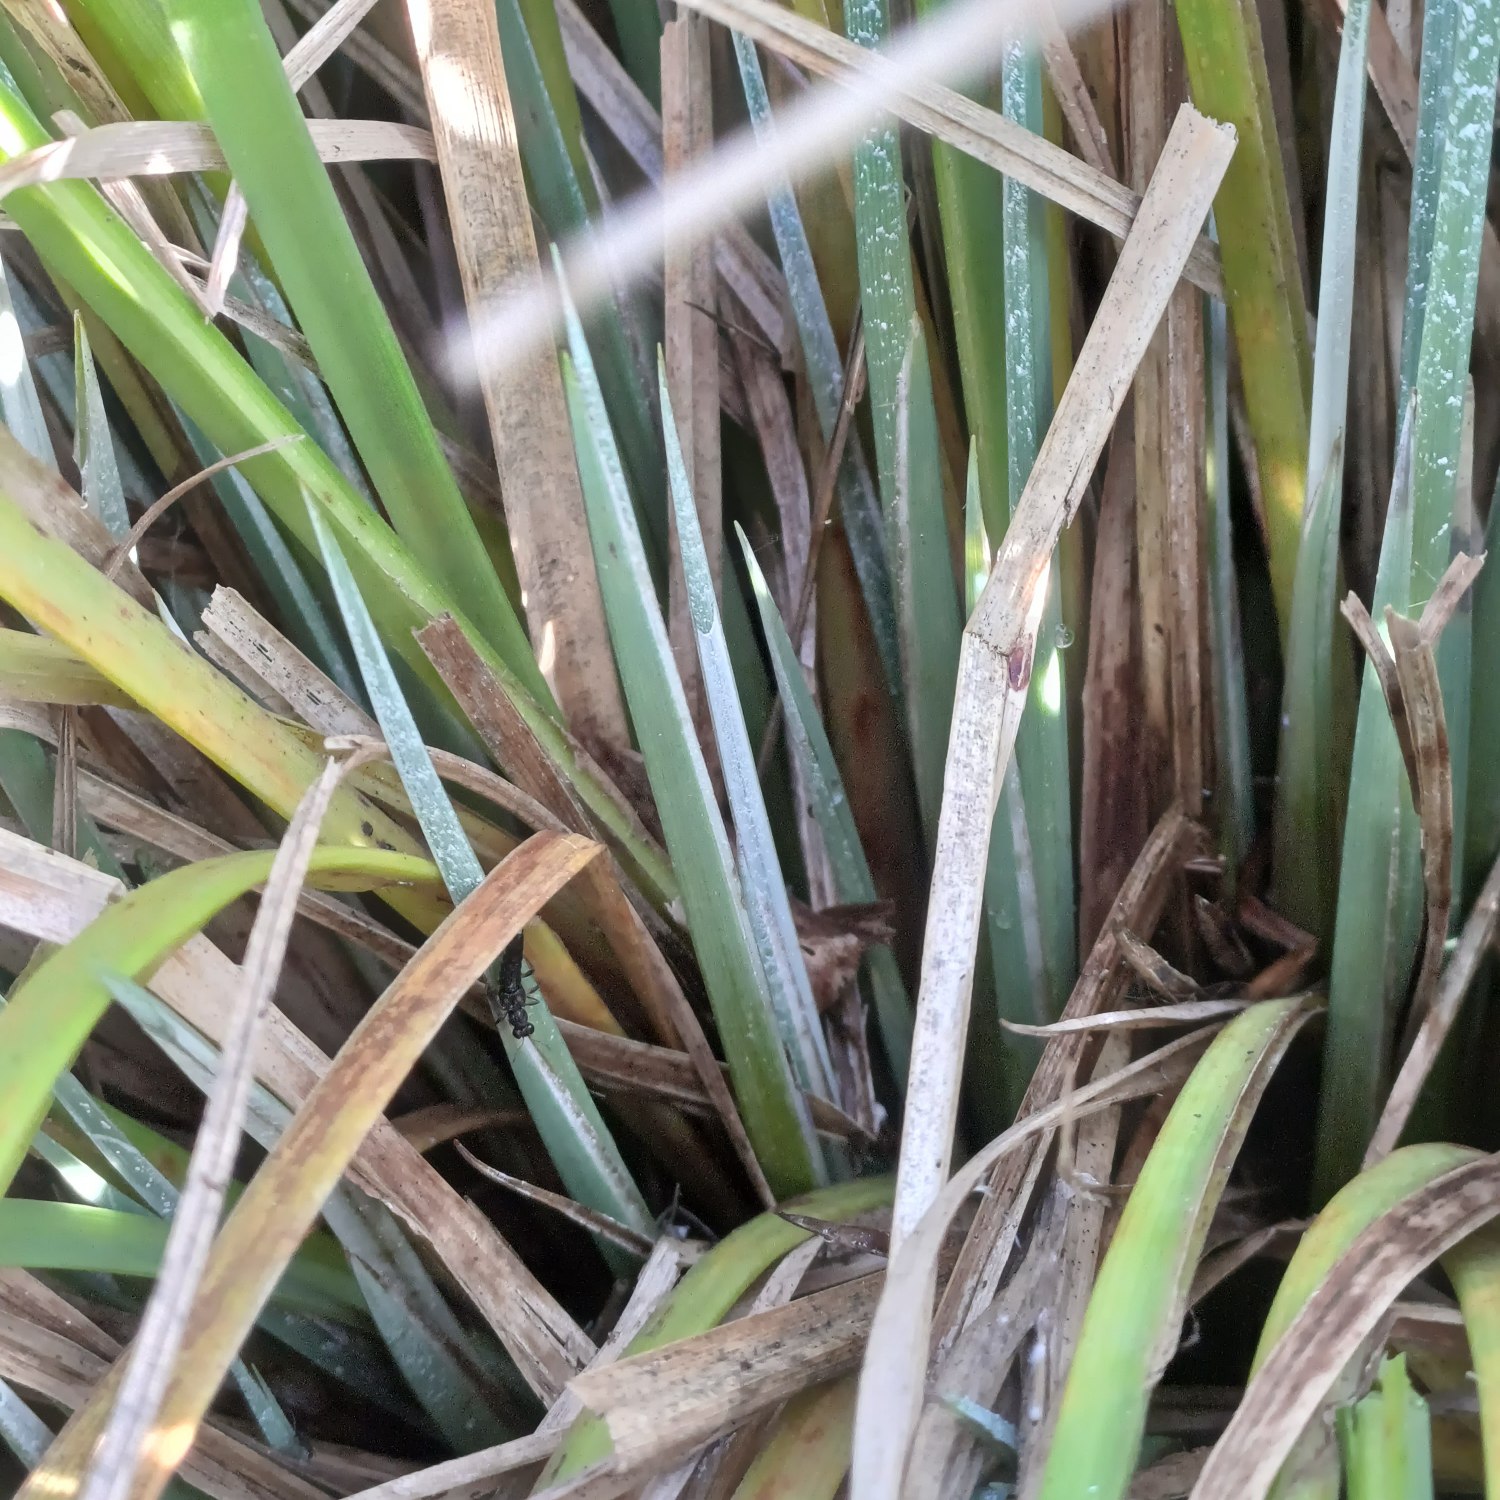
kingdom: Plantae
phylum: Tracheophyta
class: Liliopsida
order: Poales
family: Cyperaceae
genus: Carex
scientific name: Carex elata
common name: Stiv star
